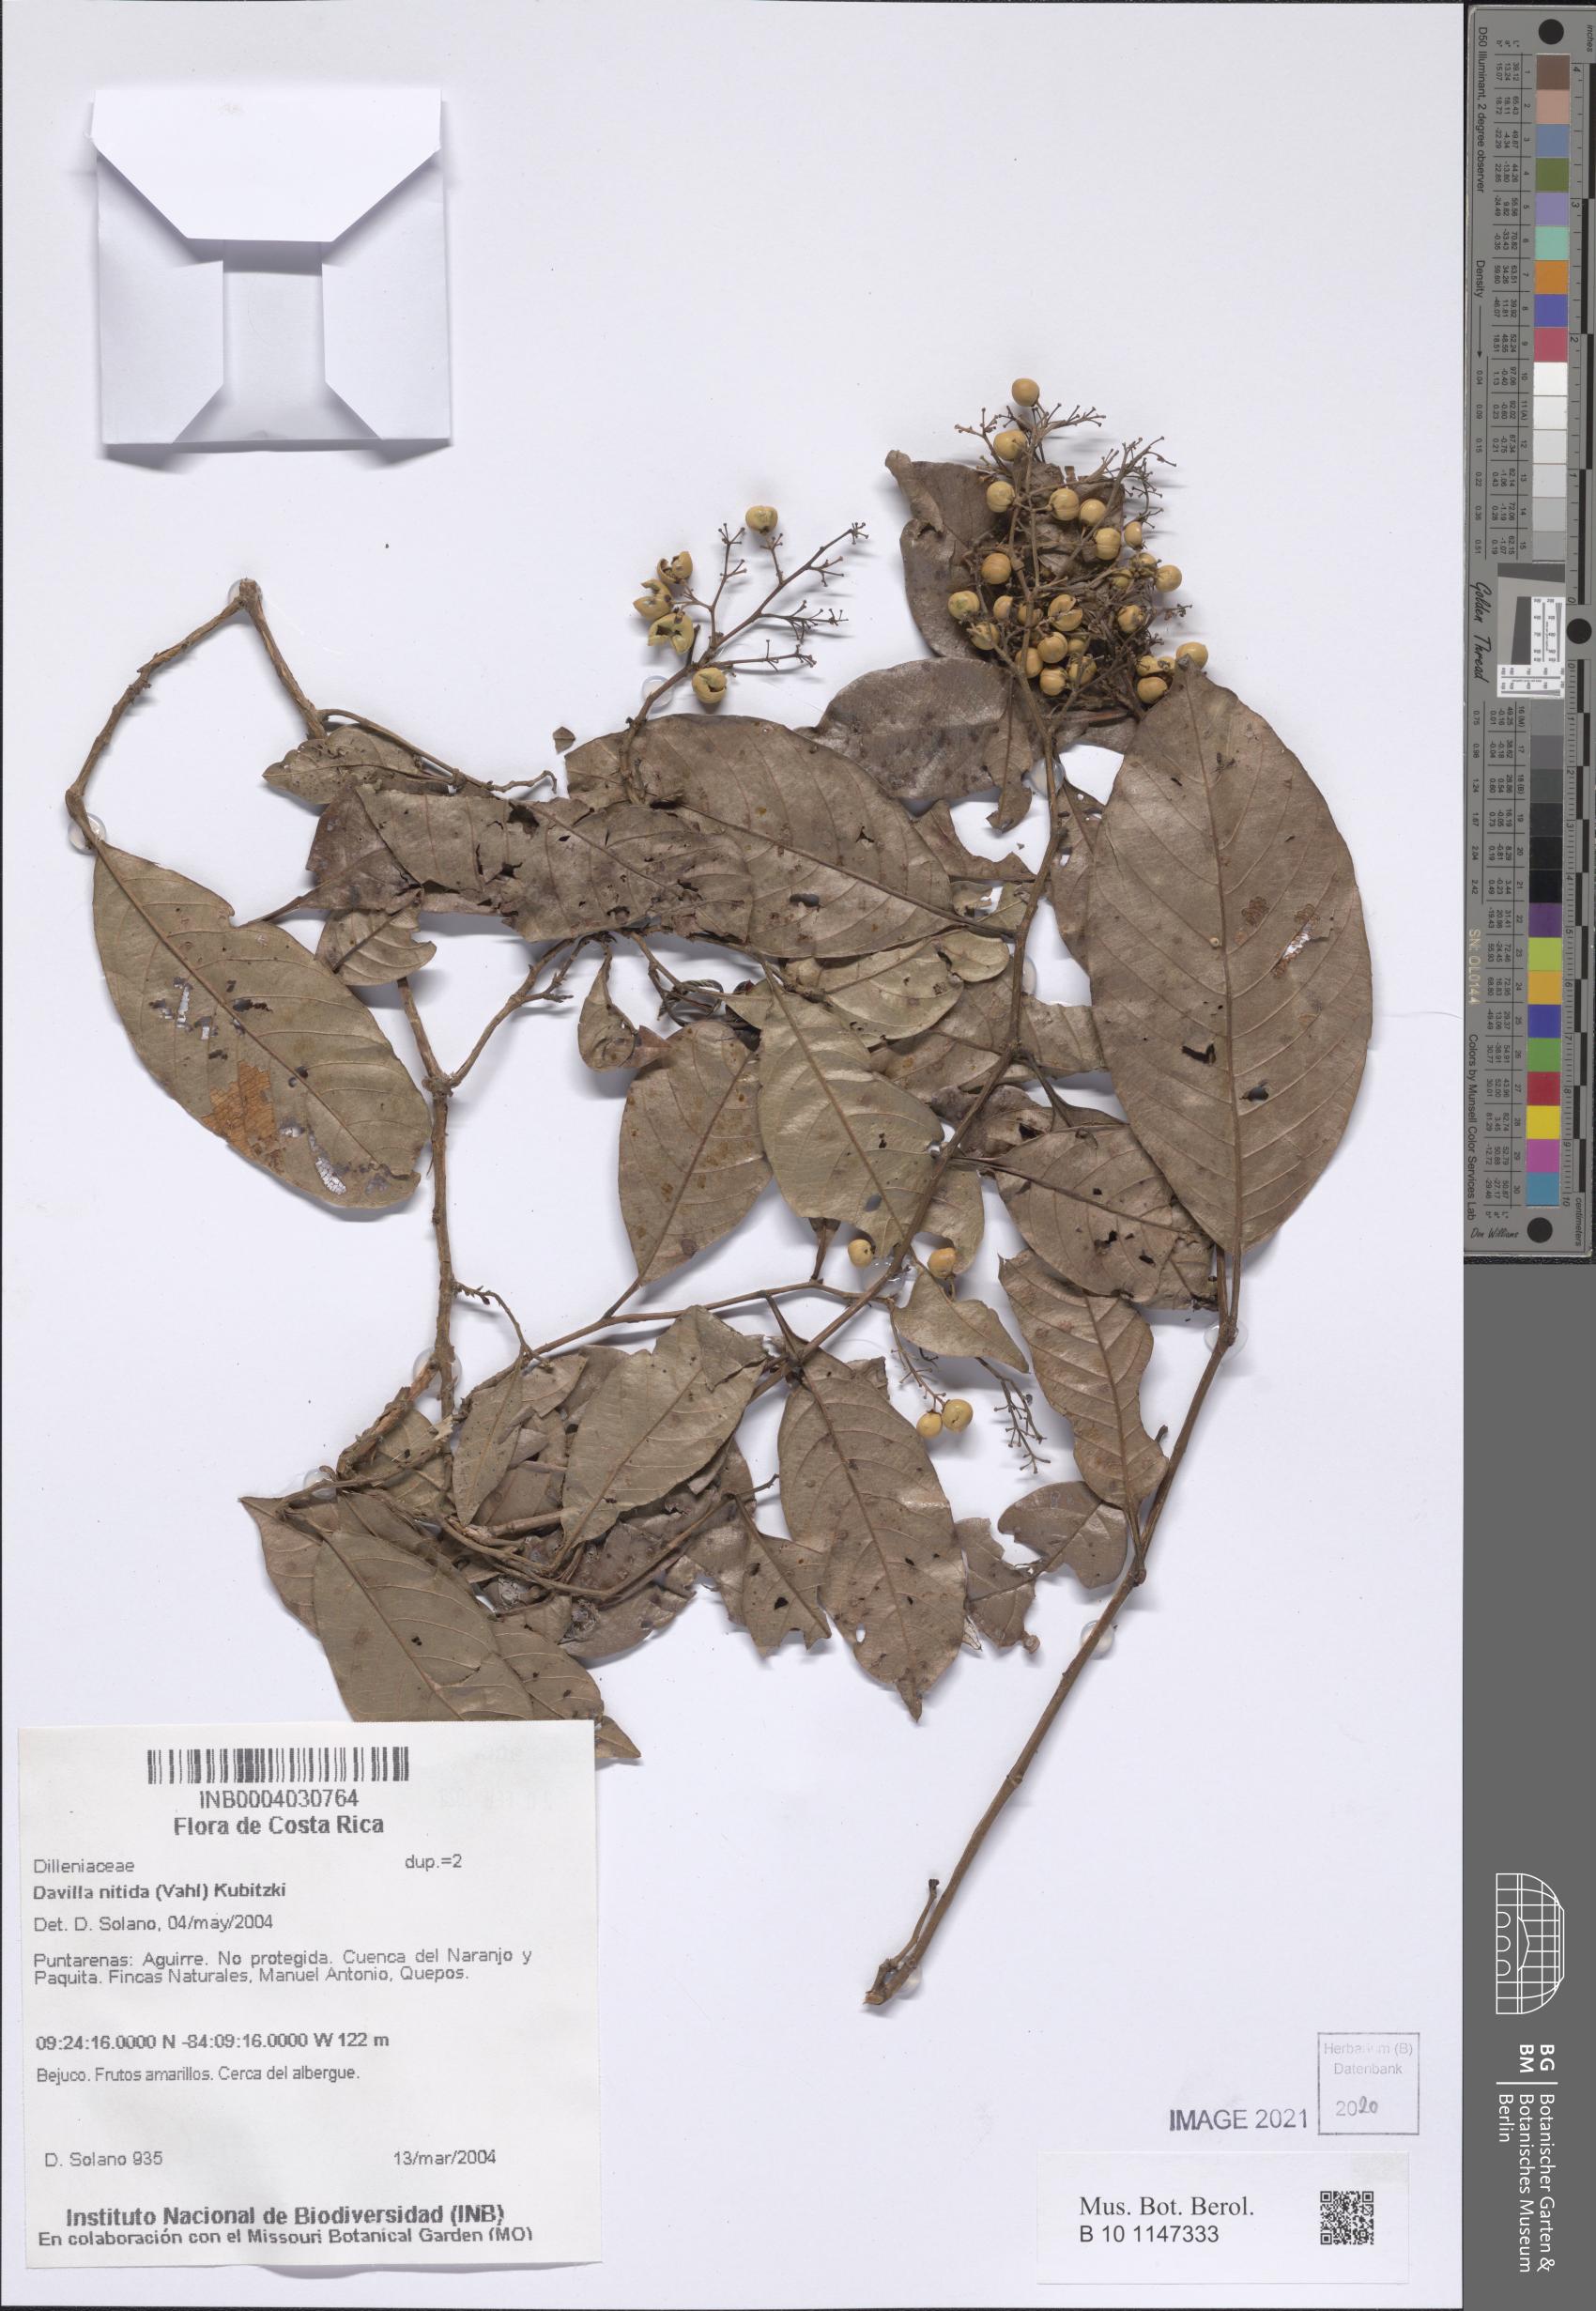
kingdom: Plantae
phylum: Tracheophyta
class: Magnoliopsida
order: Dilleniales
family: Dilleniaceae
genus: Davilla
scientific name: Davilla nitida
